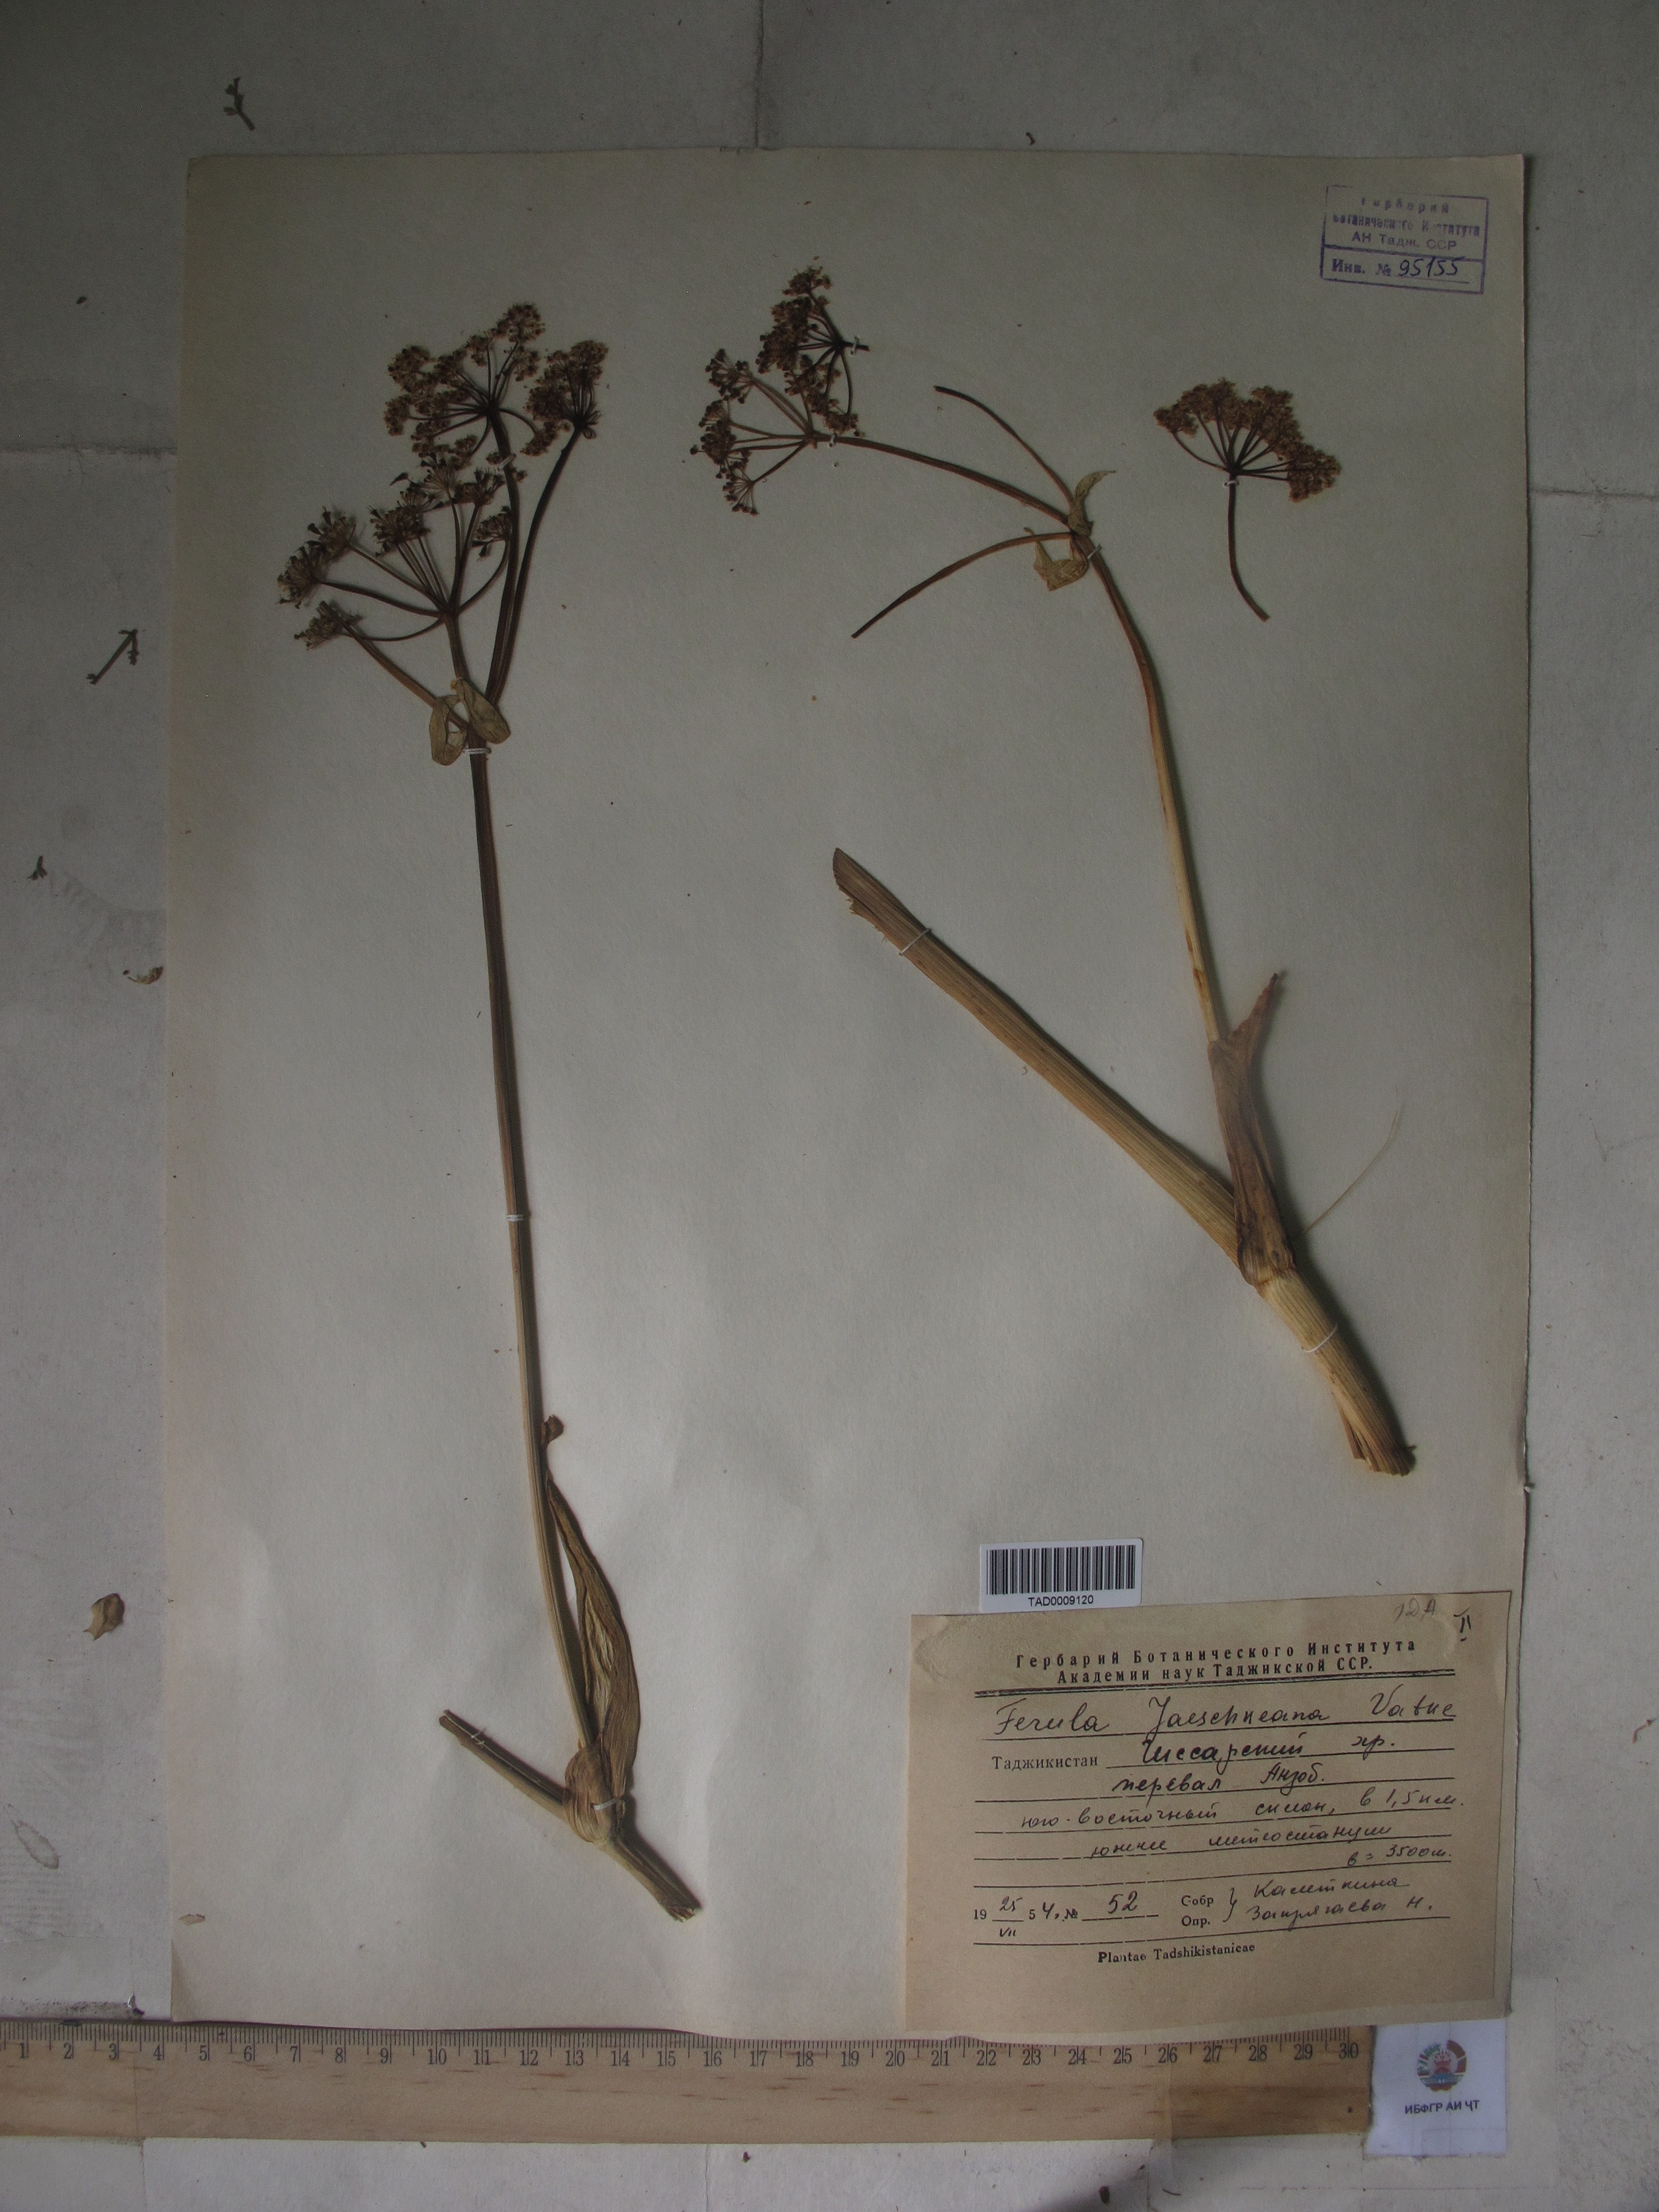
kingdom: Plantae
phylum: Tracheophyta
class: Magnoliopsida
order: Apiales
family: Apiaceae
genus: Ferula
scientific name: Ferula jaeschkeana
